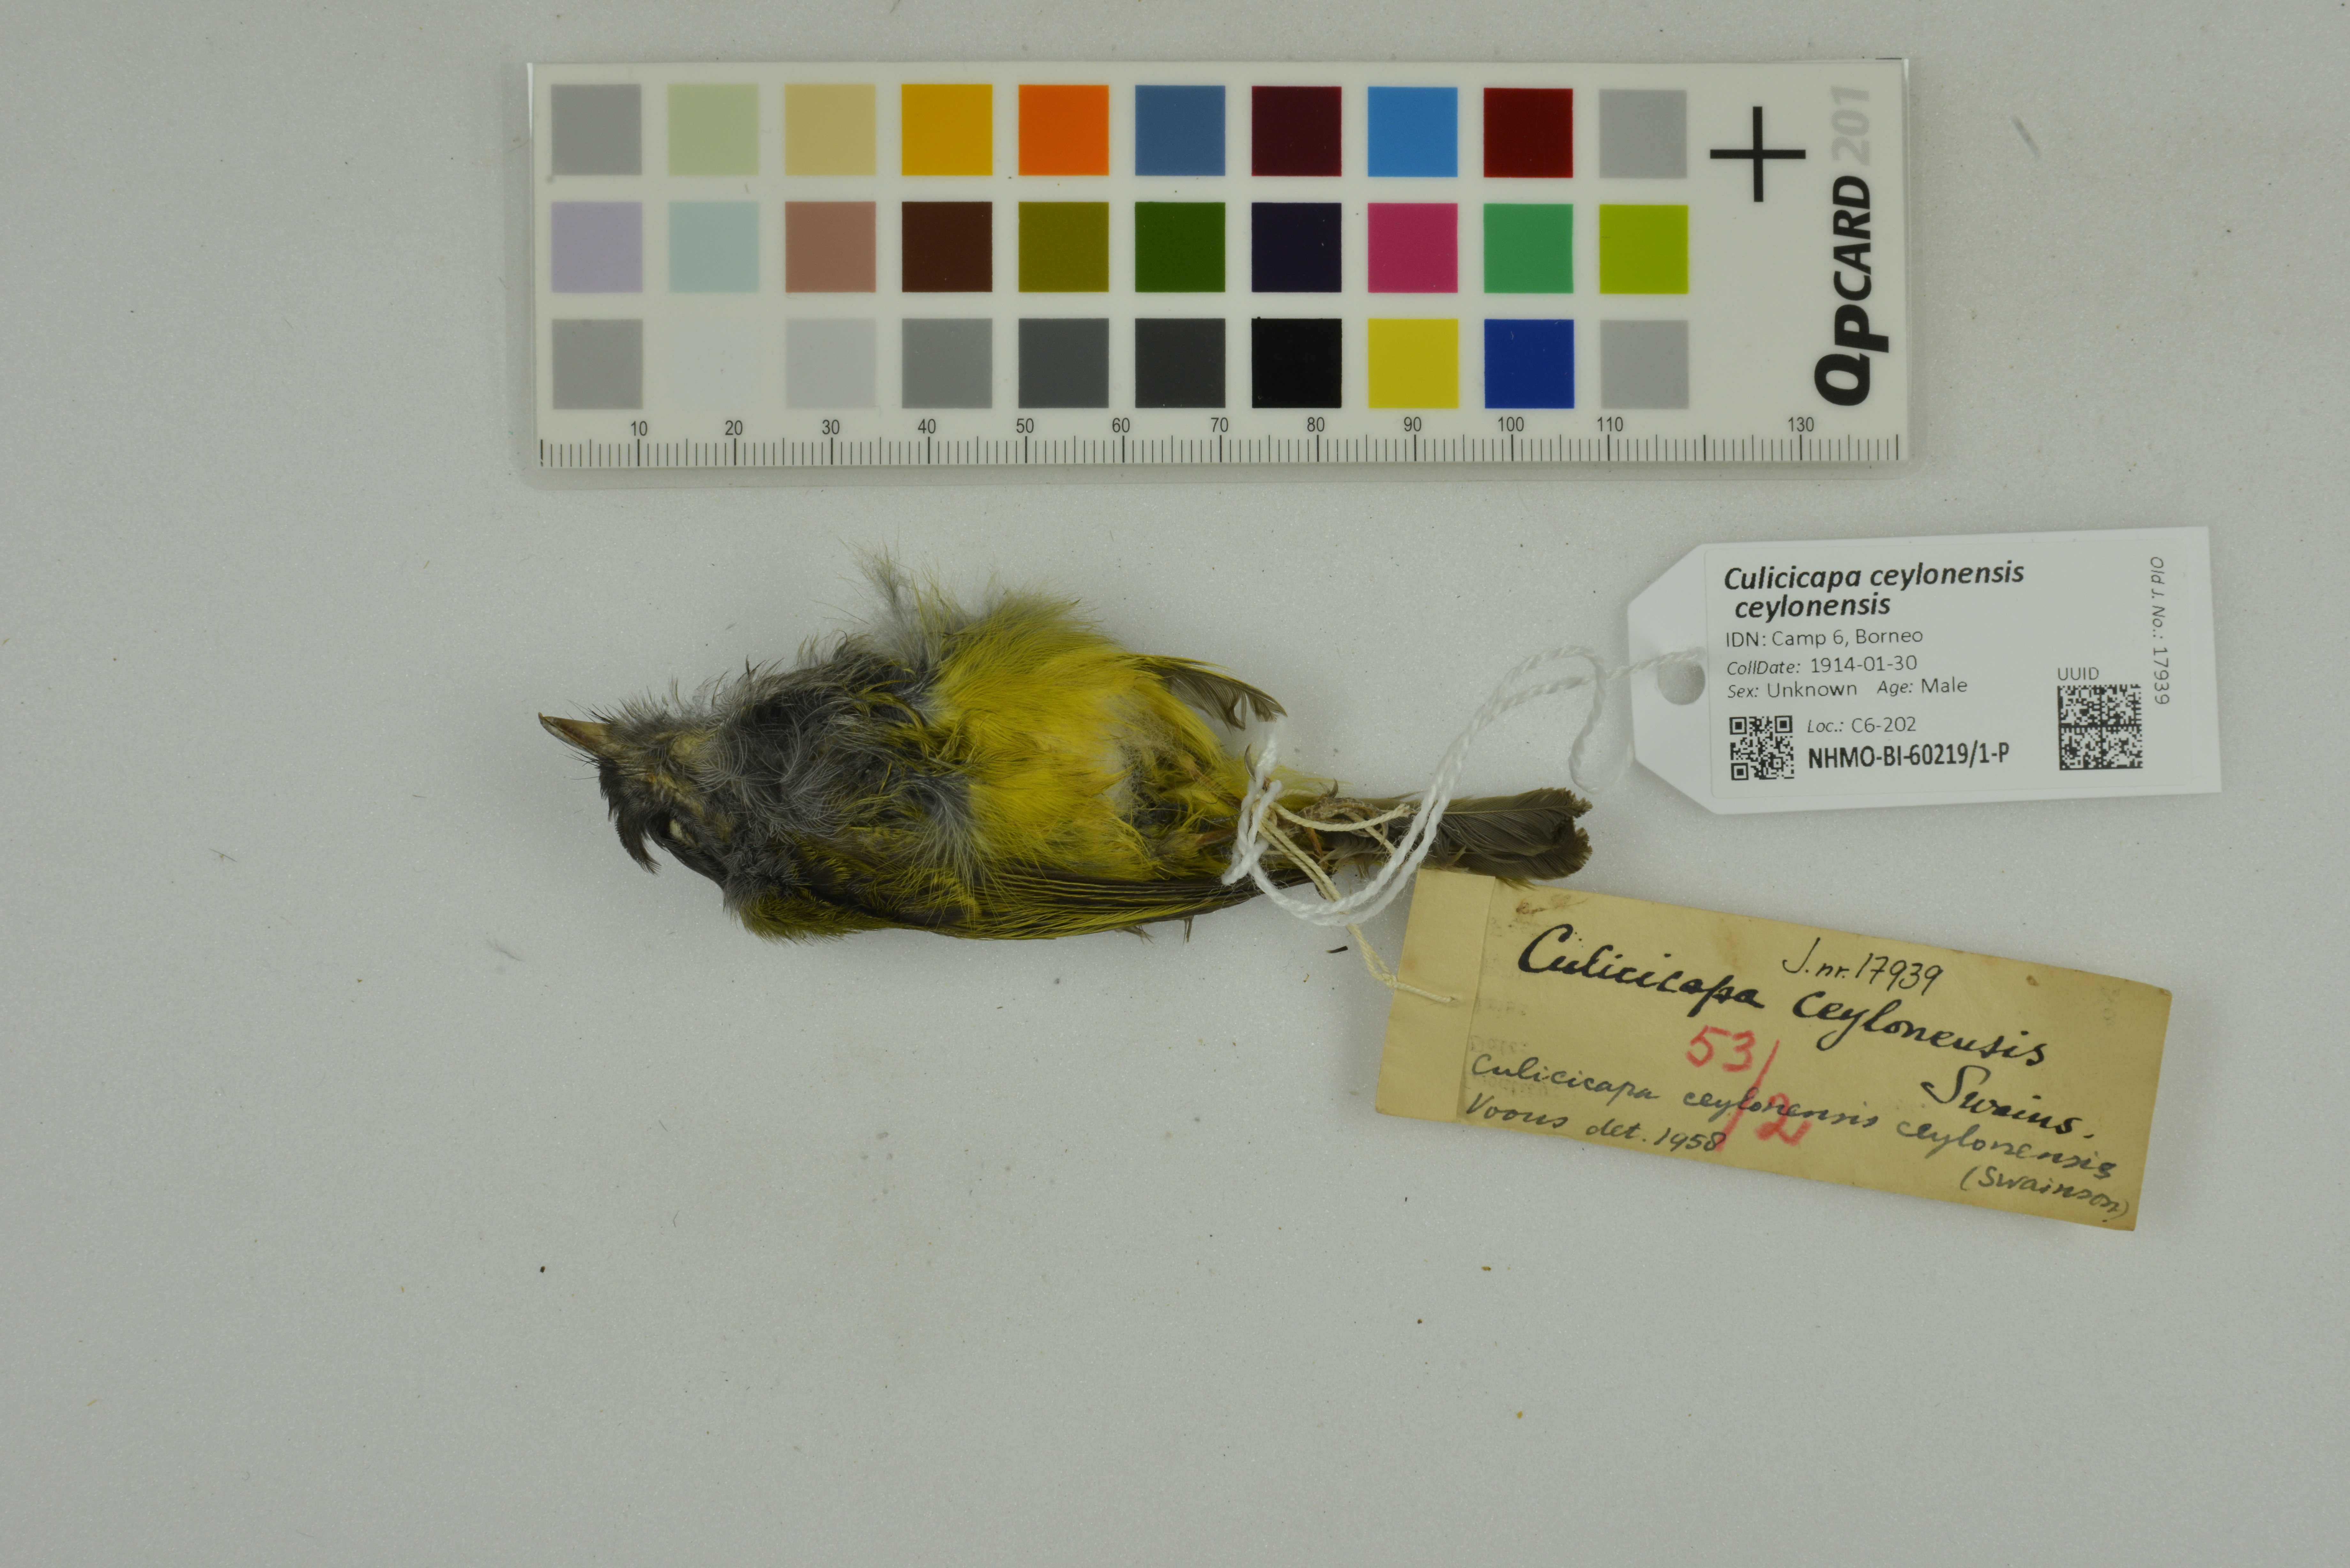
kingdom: Animalia
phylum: Chordata
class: Aves
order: Passeriformes
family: Stenostiridae
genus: Culicicapa
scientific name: Culicicapa ceylonensis
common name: Grey-headed canary-flycatcher
